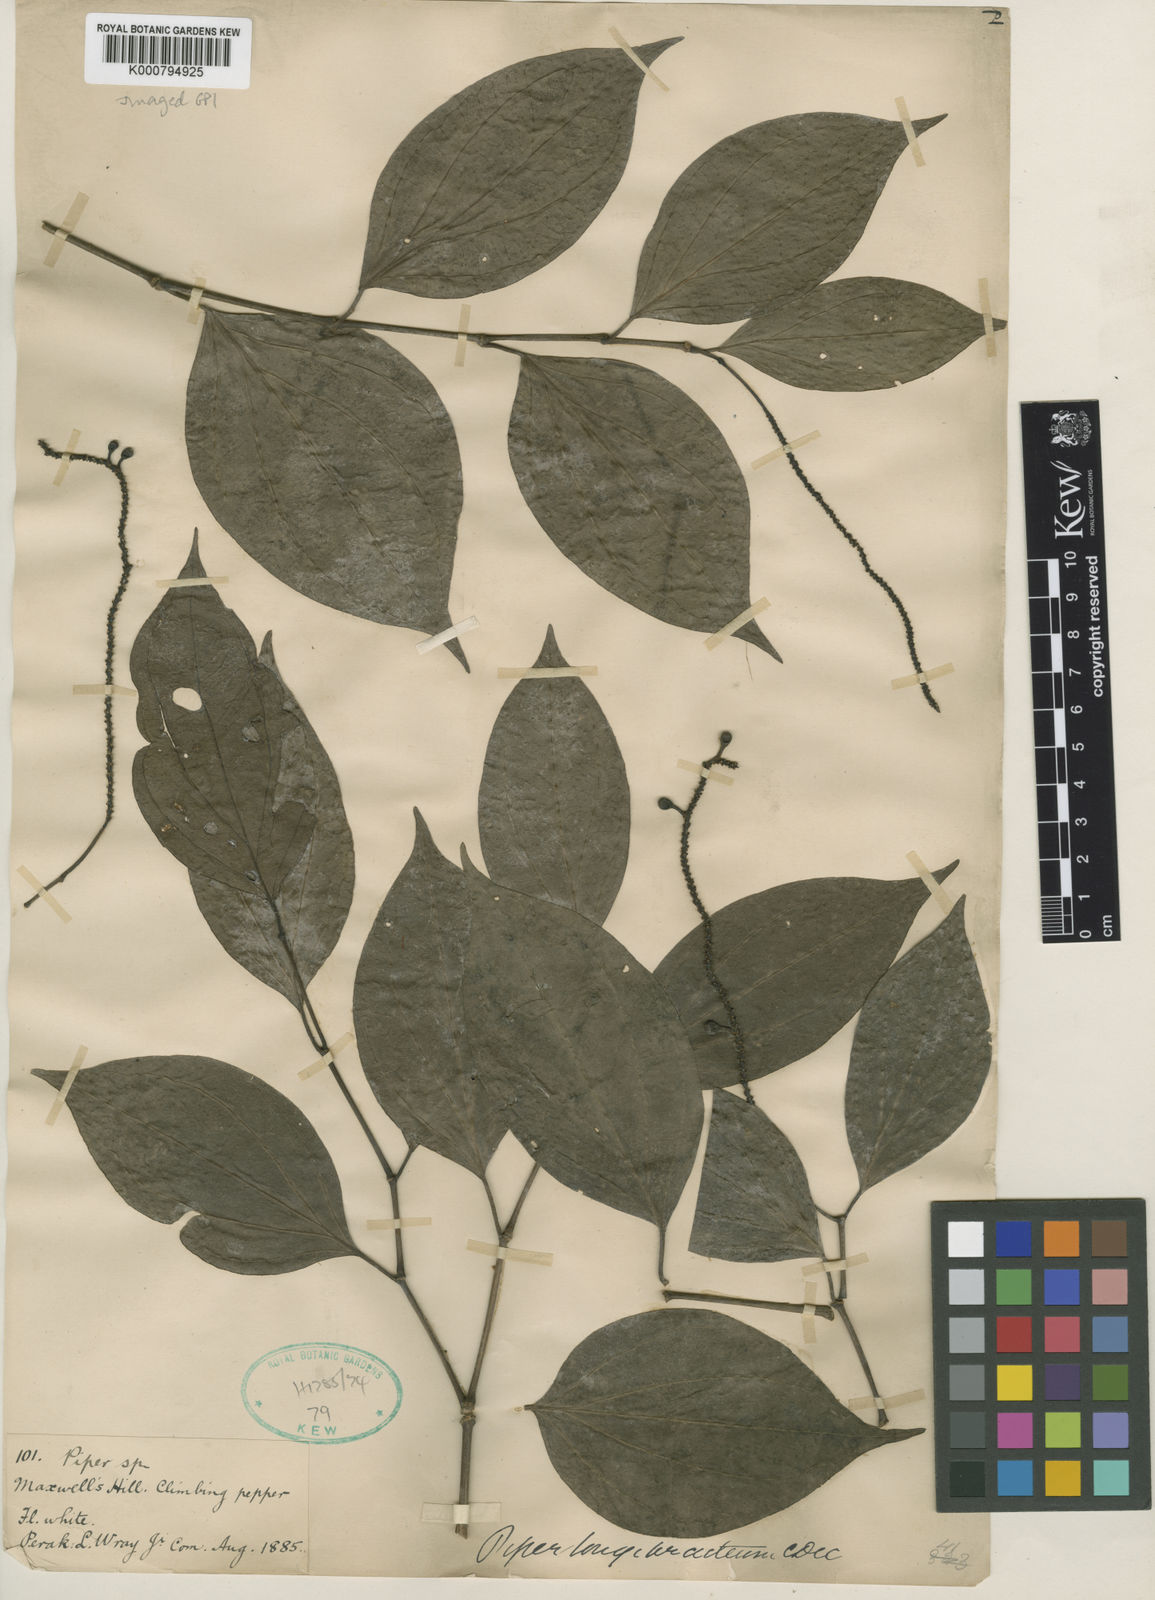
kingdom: Plantae
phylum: Tracheophyta
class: Magnoliopsida
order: Piperales
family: Piperaceae
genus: Piper
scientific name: Piper griffithii
